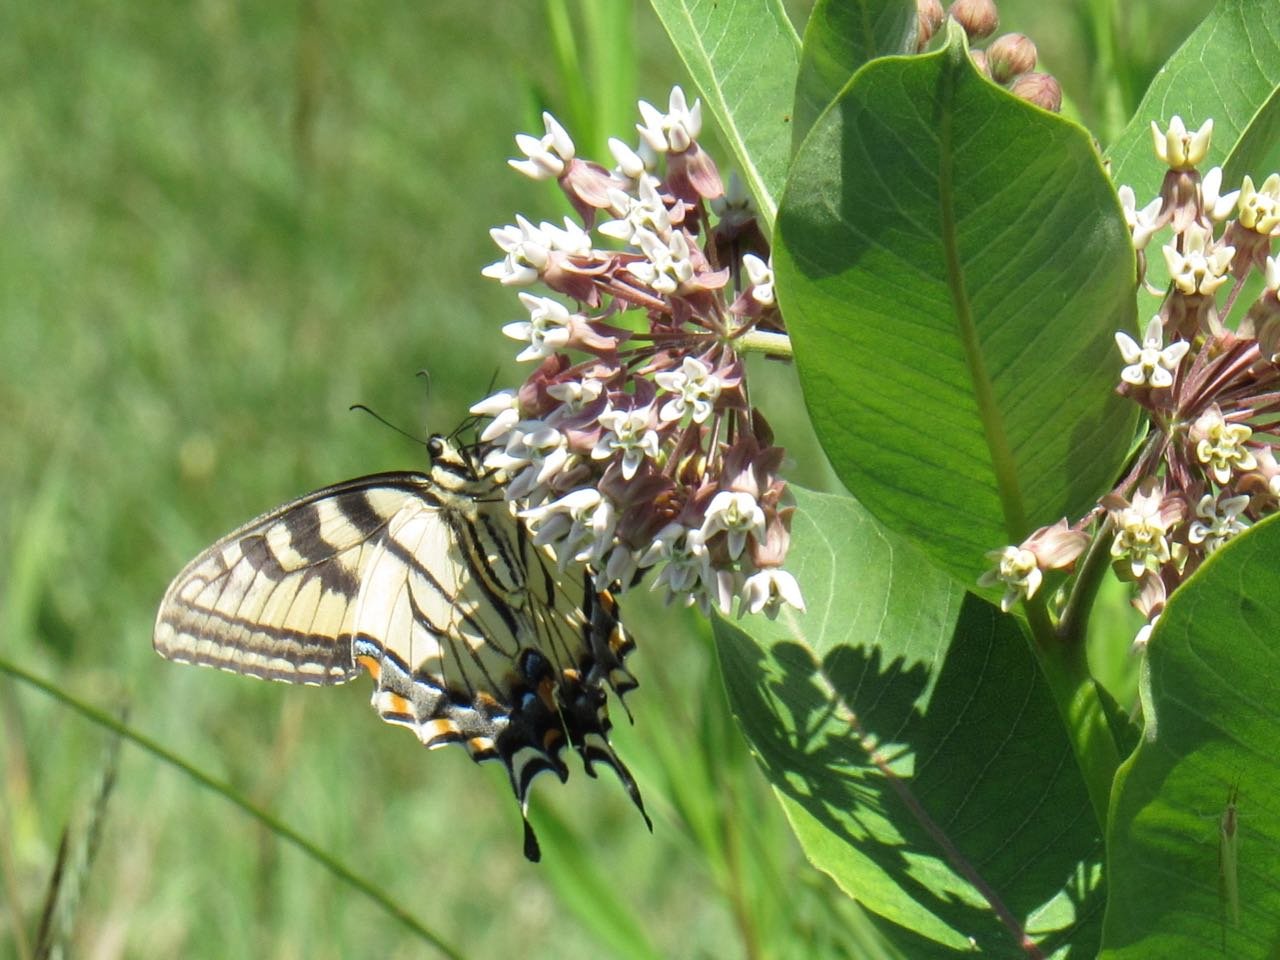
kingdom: Animalia
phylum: Arthropoda
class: Insecta
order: Lepidoptera
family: Papilionidae
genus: Pterourus
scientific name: Pterourus
